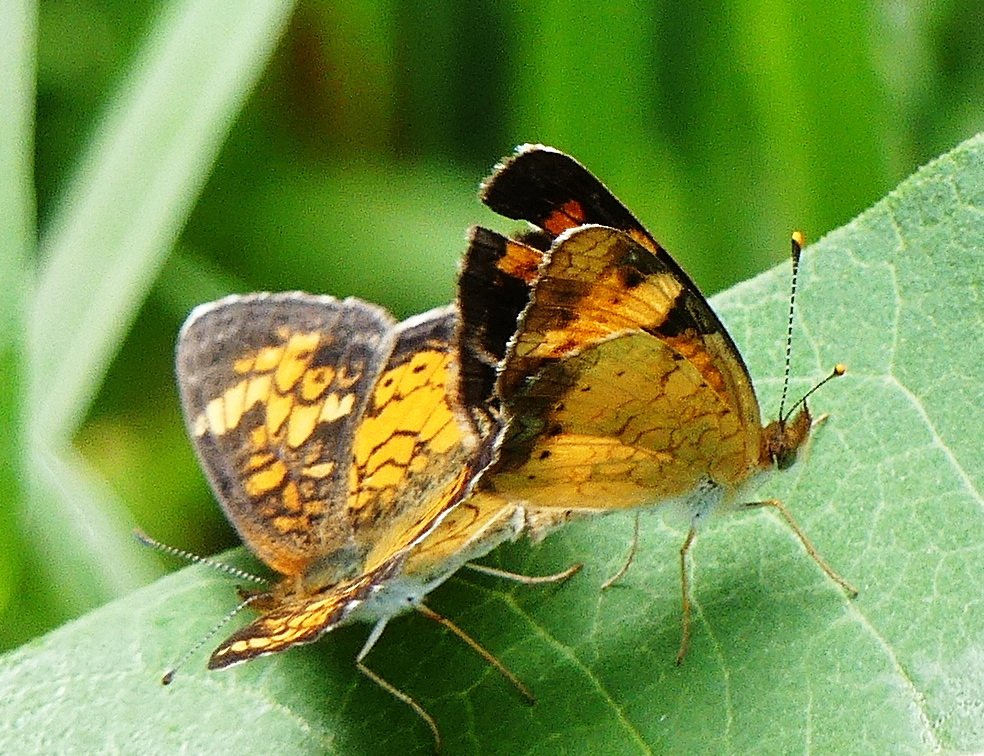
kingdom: Animalia
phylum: Arthropoda
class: Insecta
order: Lepidoptera
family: Nymphalidae
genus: Phyciodes
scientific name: Phyciodes tharos
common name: Northern Crescent
